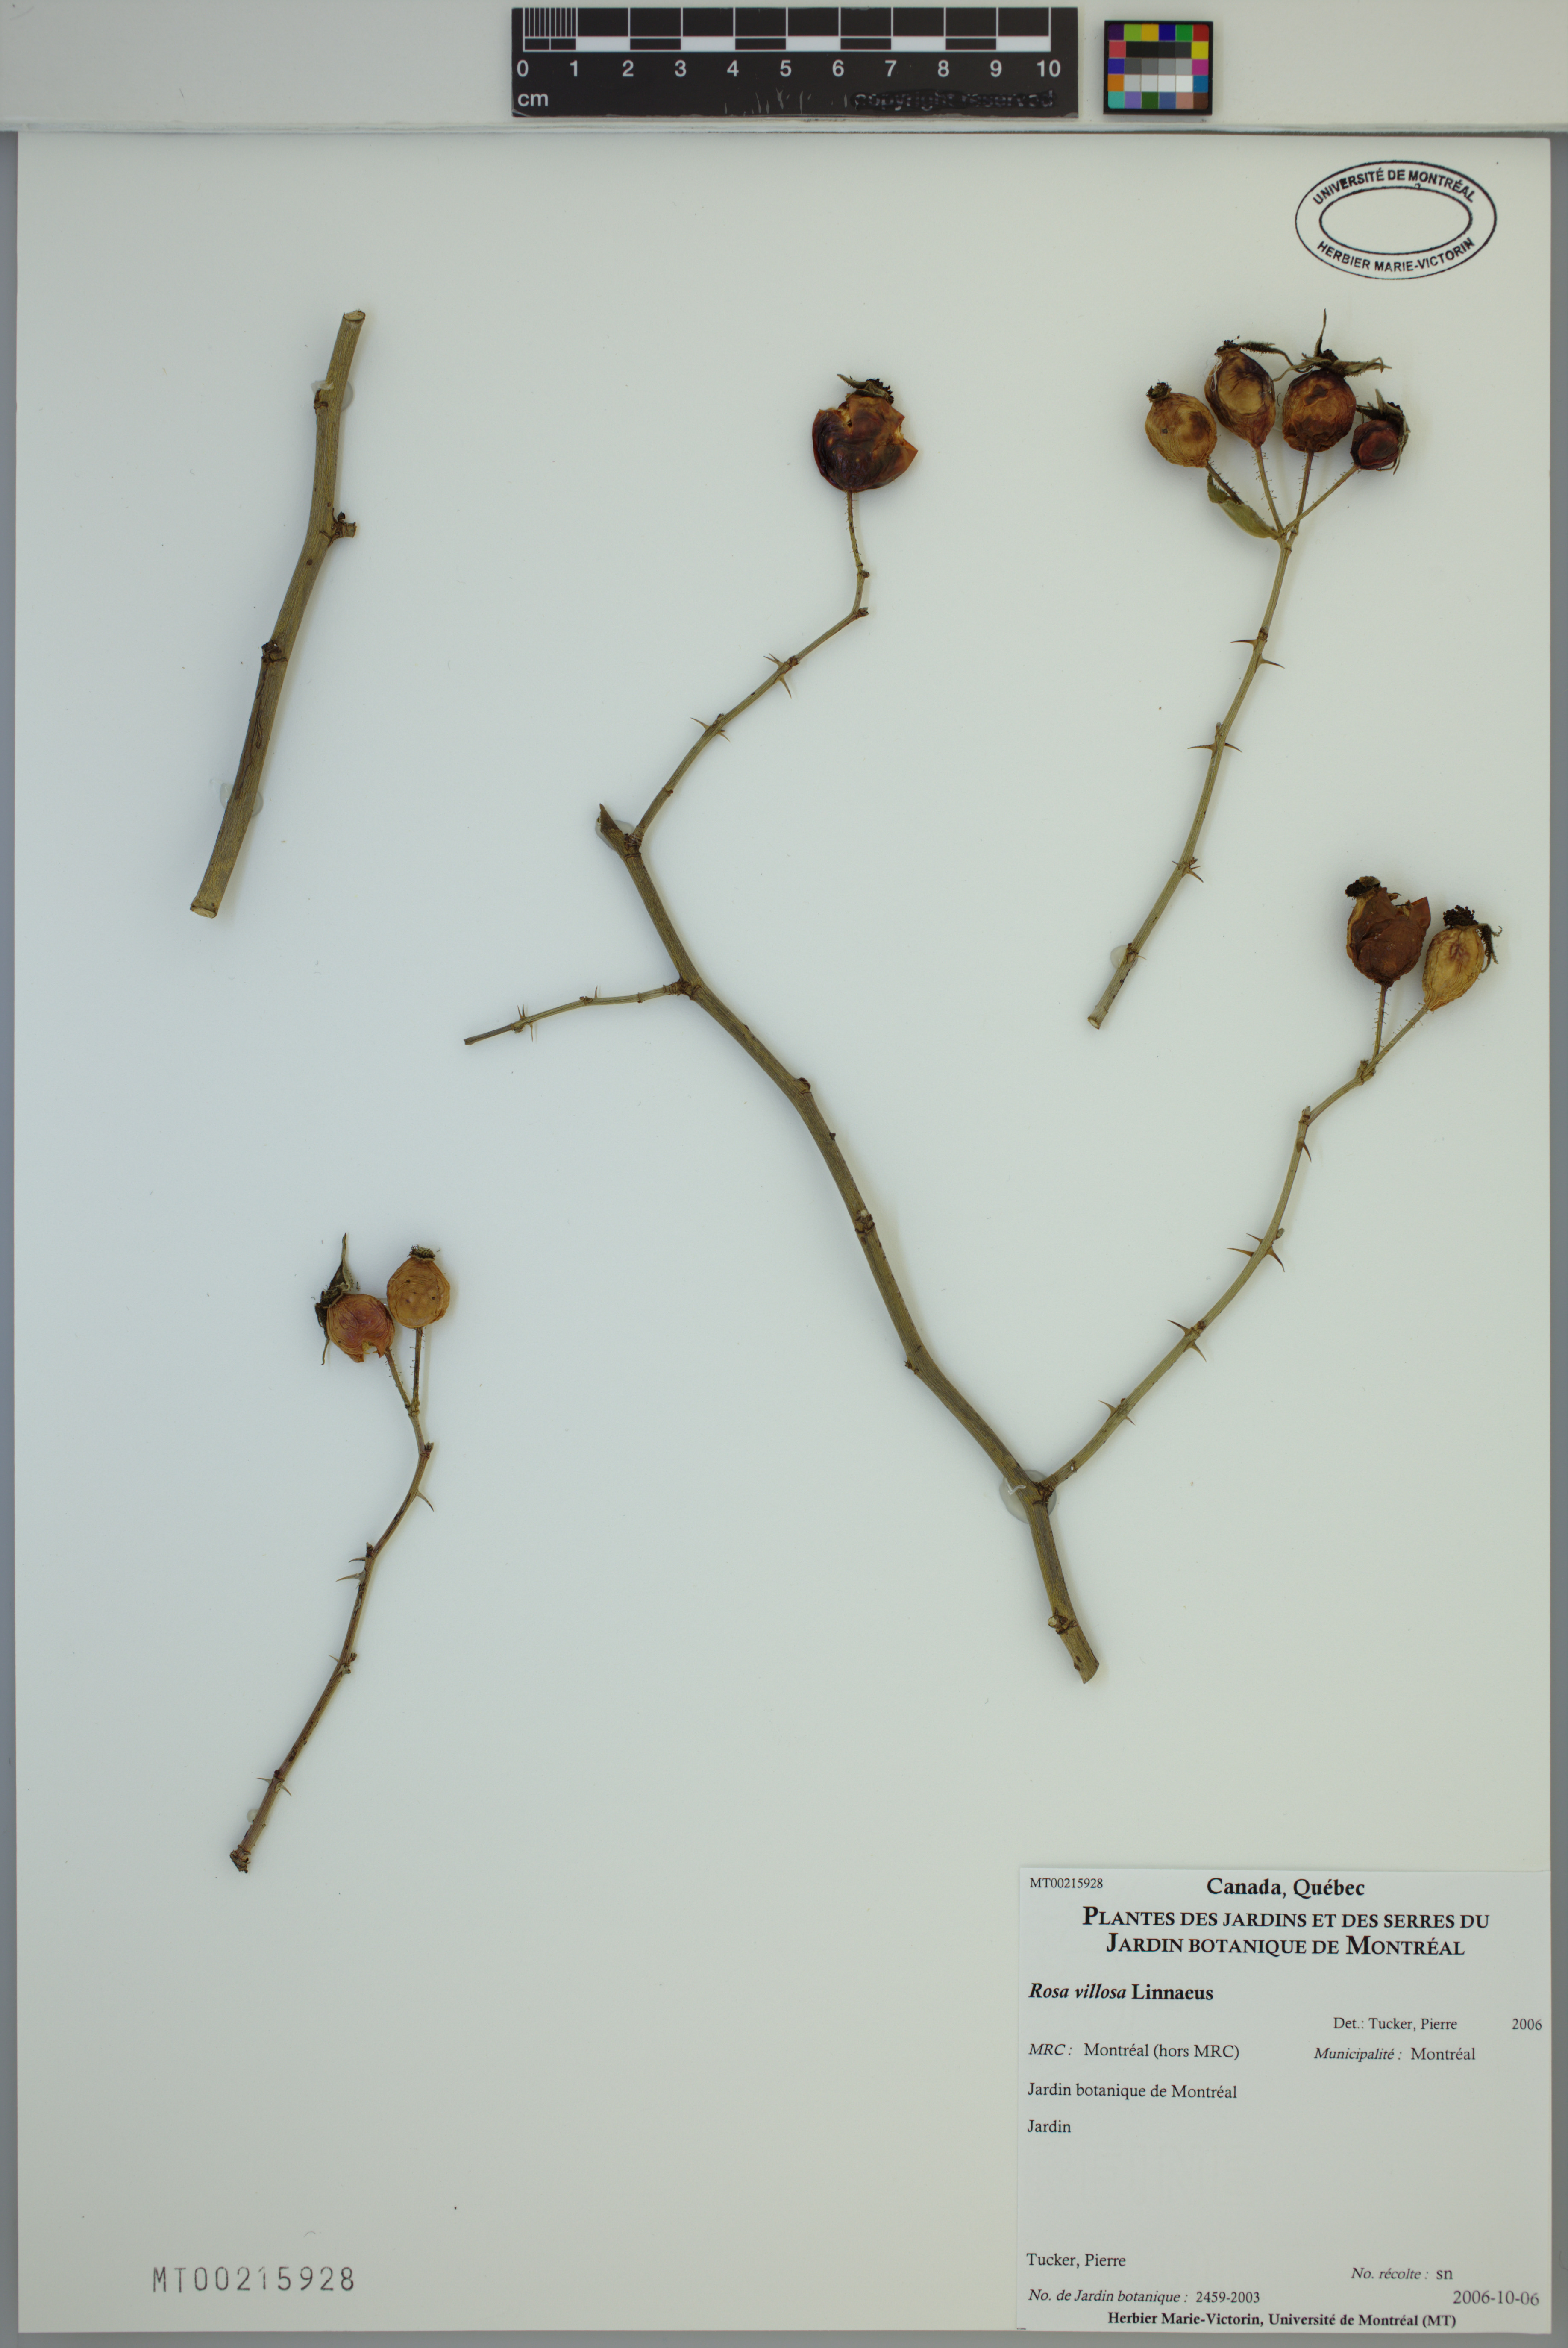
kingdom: Plantae
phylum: Tracheophyta
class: Magnoliopsida
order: Rosales
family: Rosaceae
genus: Rosa
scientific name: Rosa villosa
